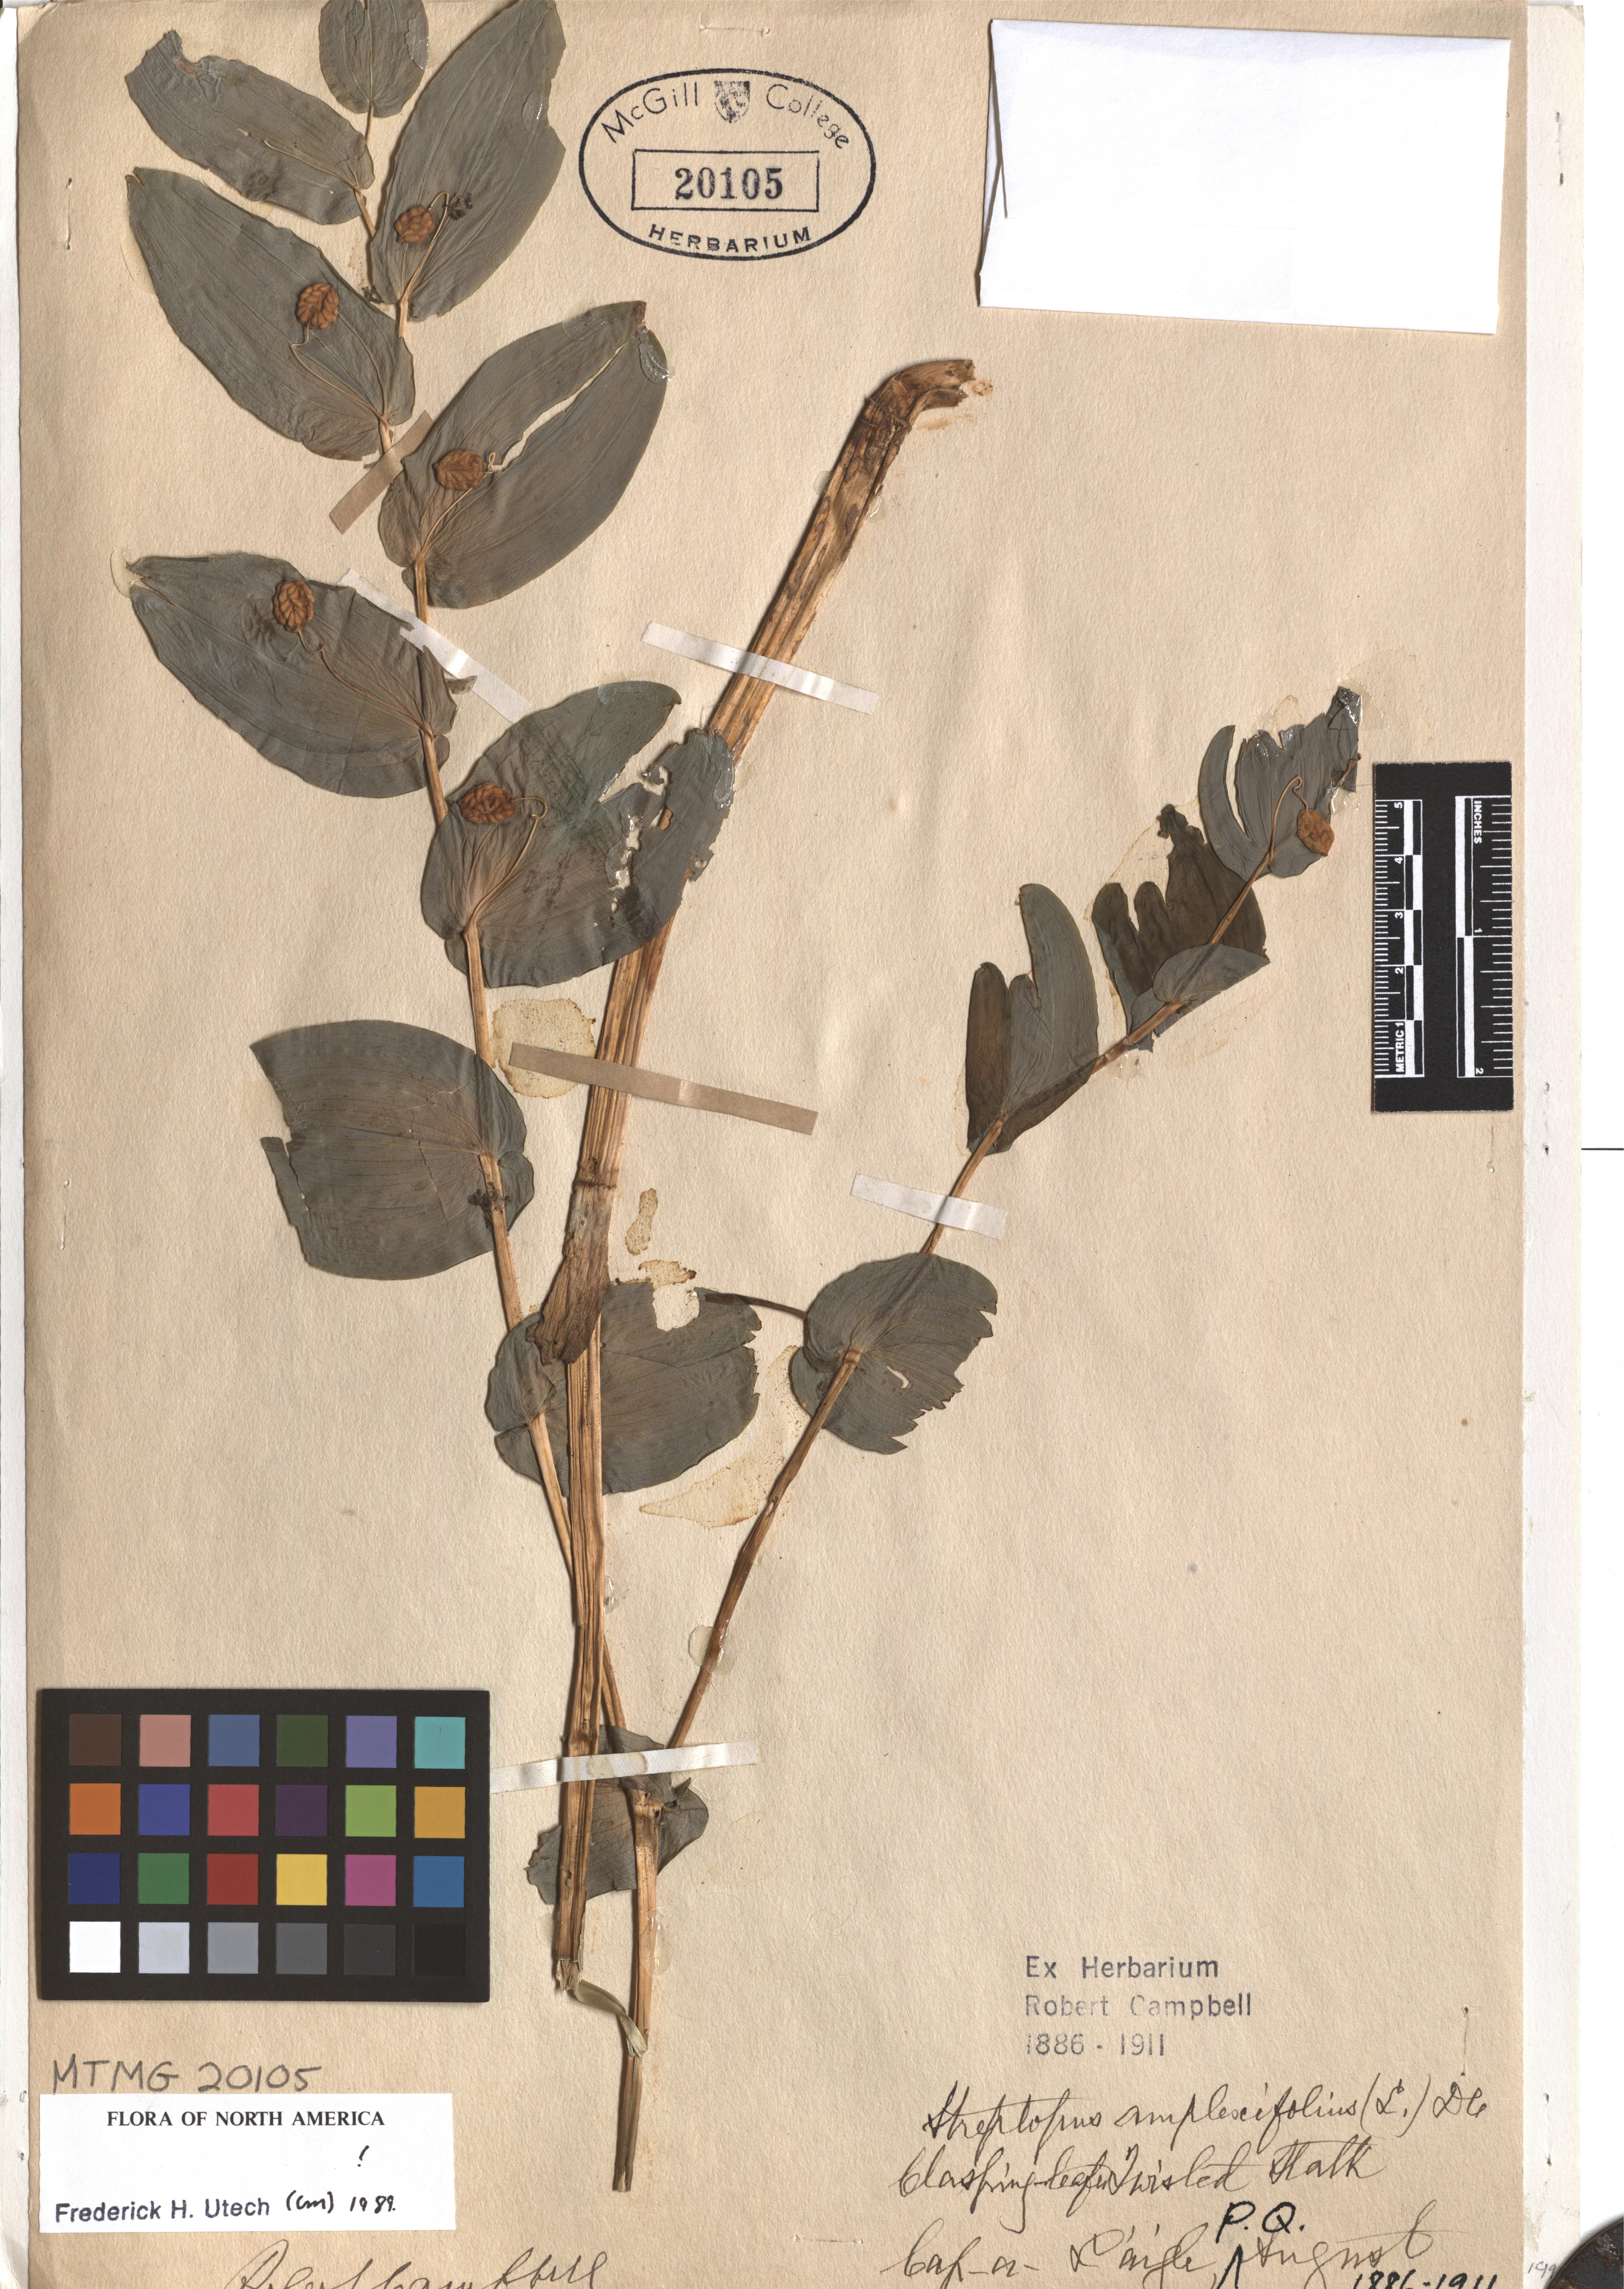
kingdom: Plantae
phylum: Tracheophyta
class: Liliopsida
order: Liliales
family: Liliaceae
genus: Streptopus
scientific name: Streptopus amplexifolius
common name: Clasp twisted stalk
